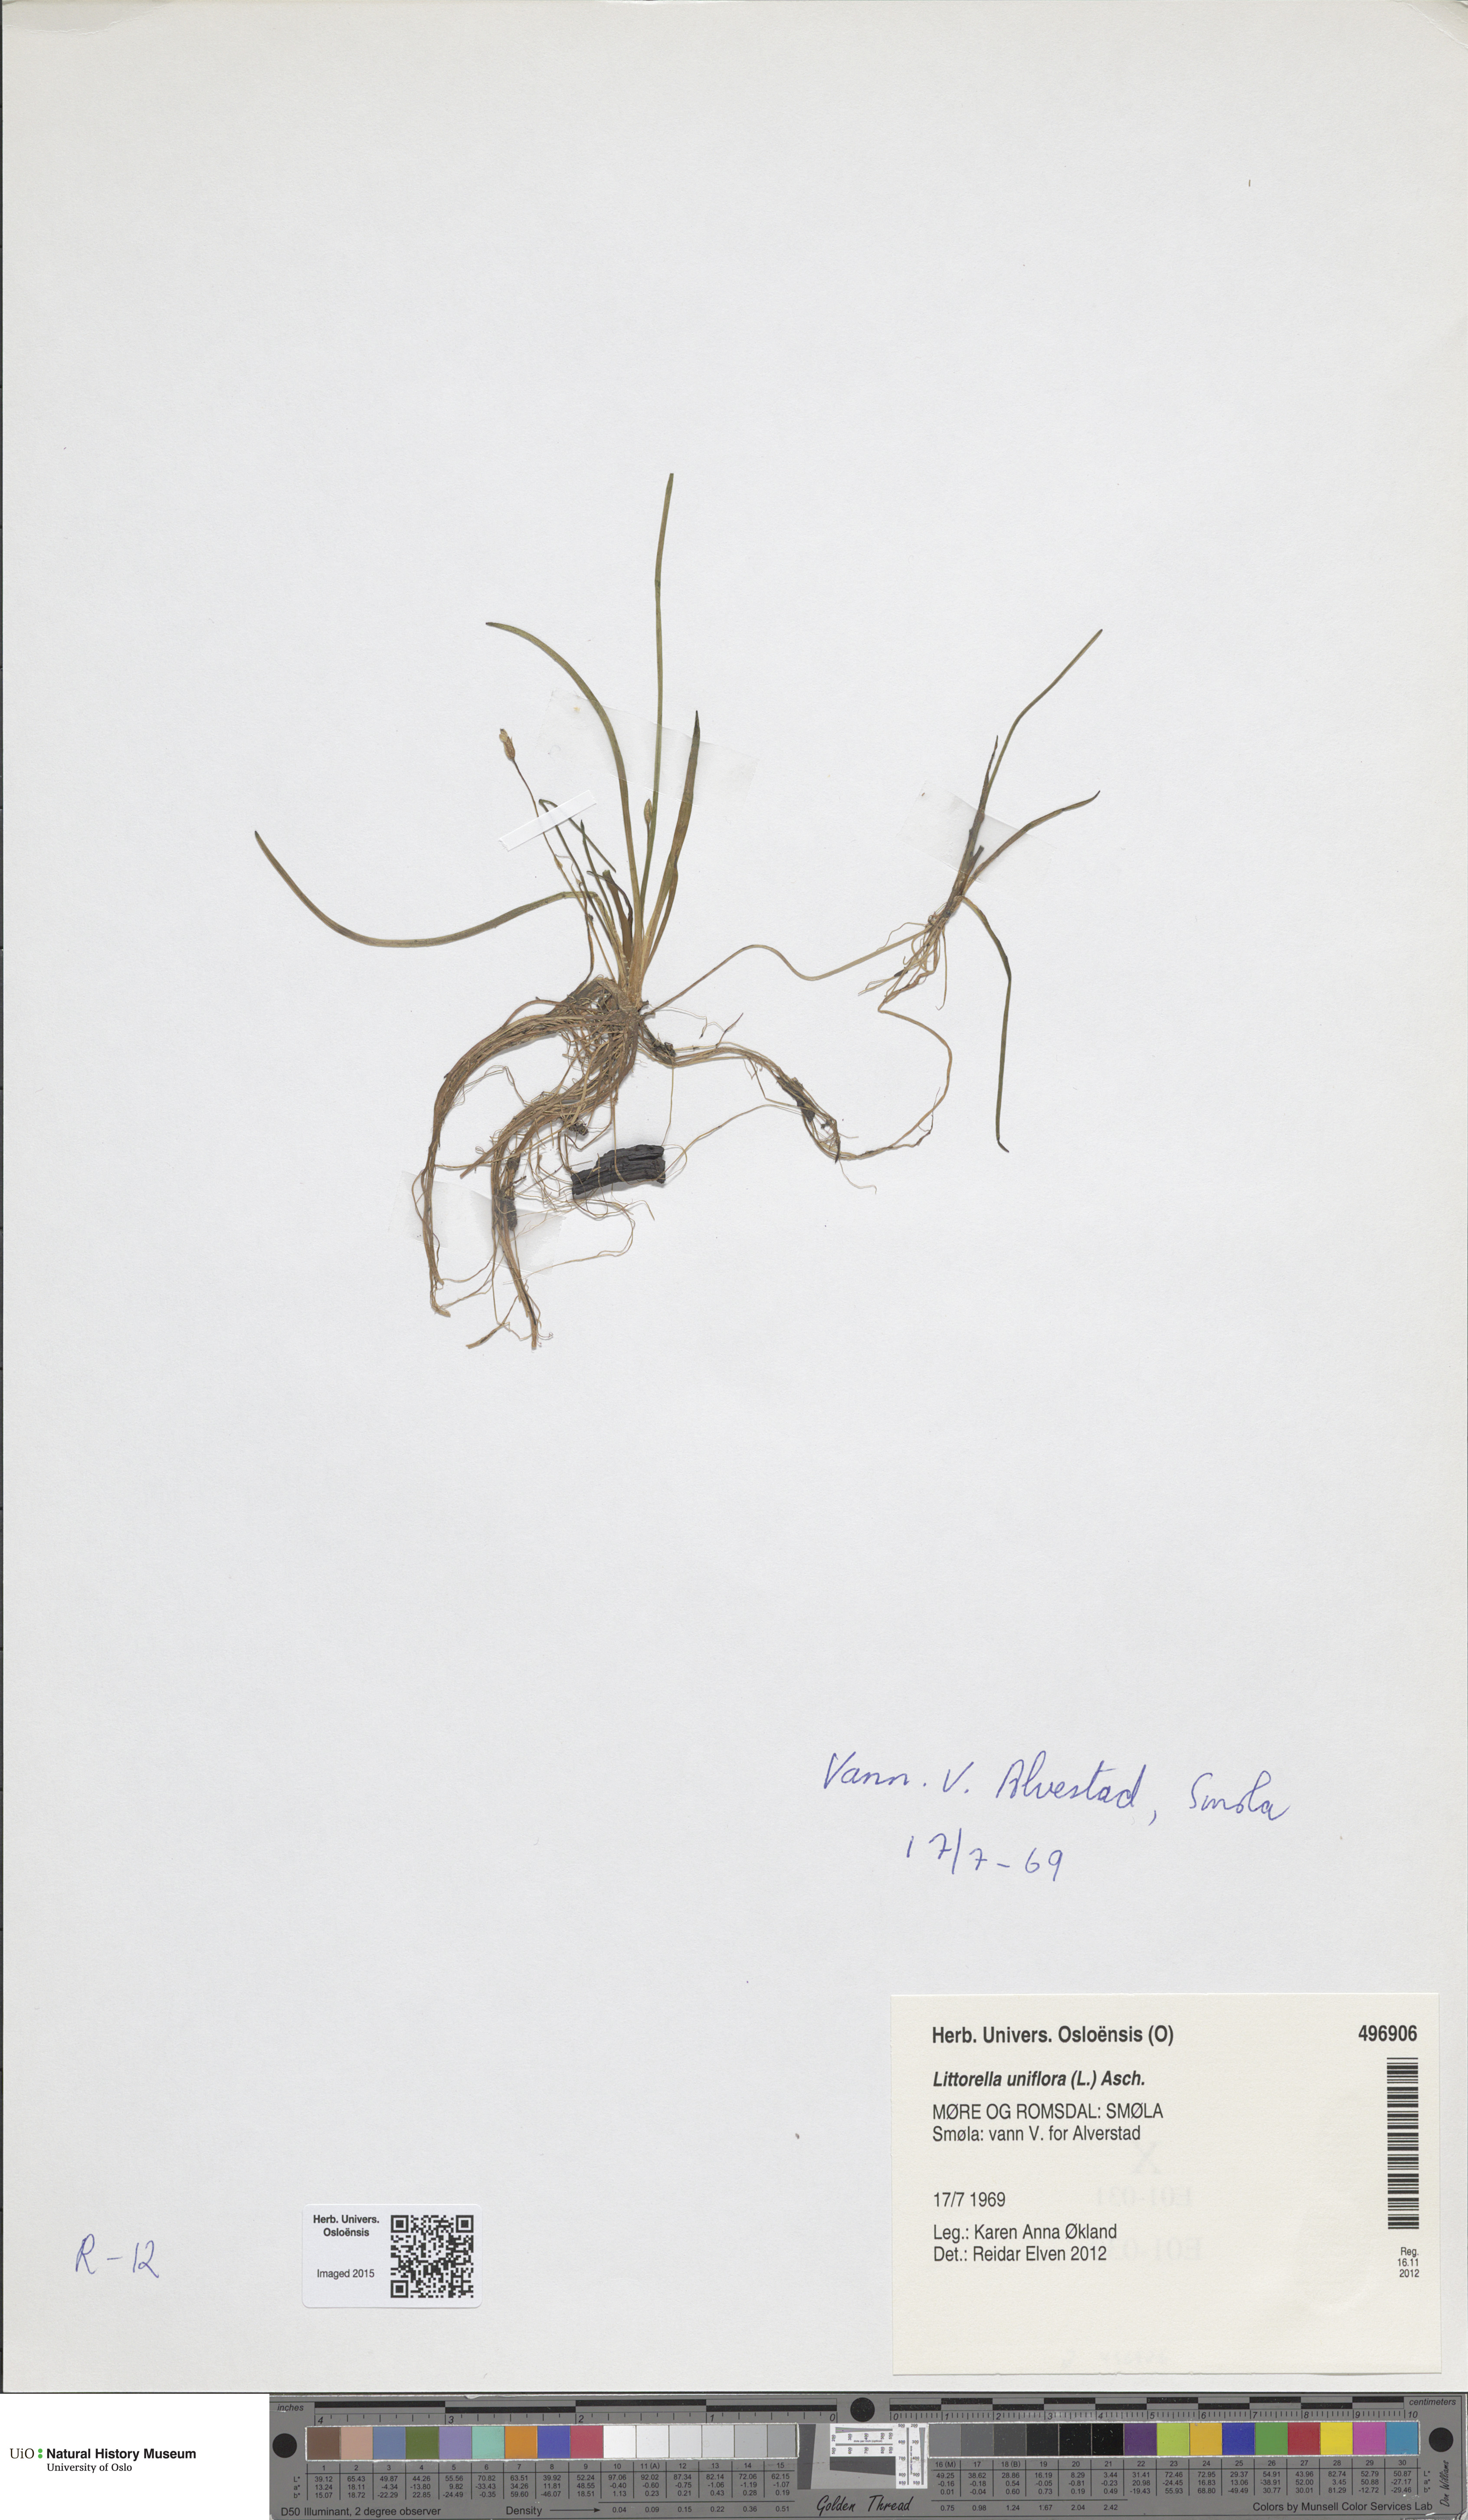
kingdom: Plantae
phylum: Tracheophyta
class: Magnoliopsida
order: Lamiales
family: Plantaginaceae
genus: Littorella
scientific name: Littorella uniflora
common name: Shoreweed
